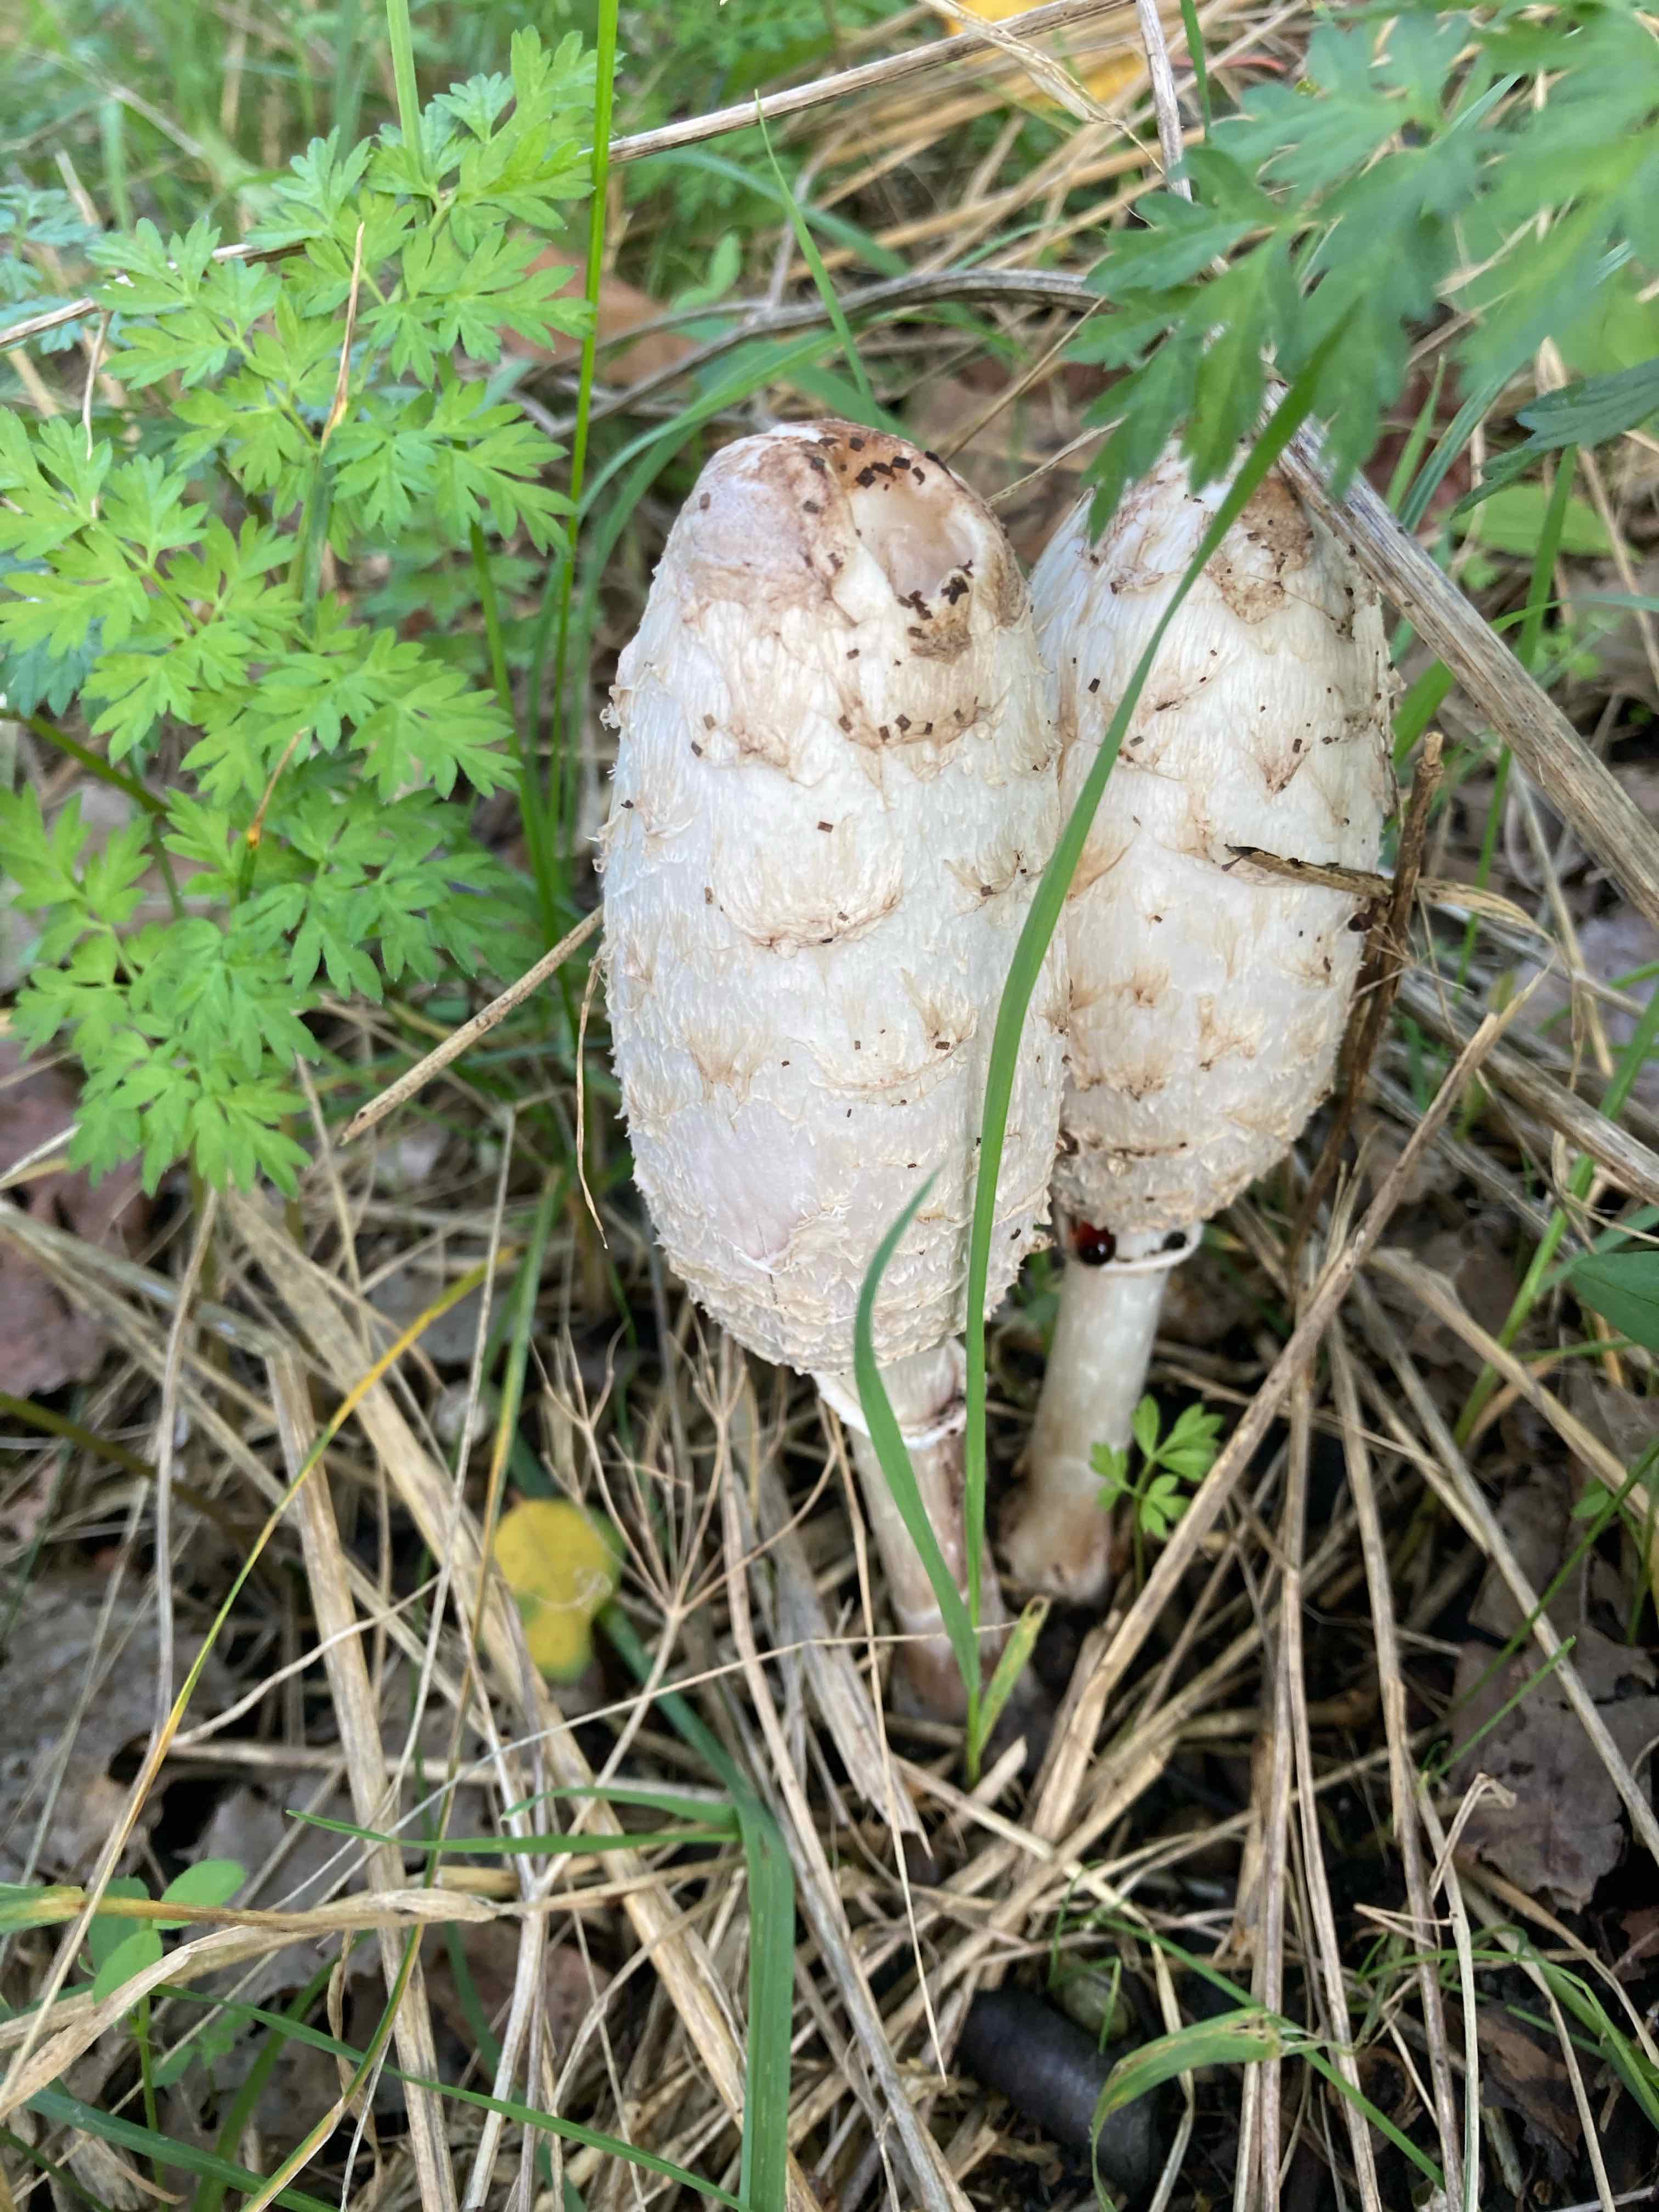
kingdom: Fungi
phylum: Basidiomycota
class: Agaricomycetes
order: Agaricales
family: Agaricaceae
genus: Coprinus
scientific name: Coprinus comatus
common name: stor parykhat
